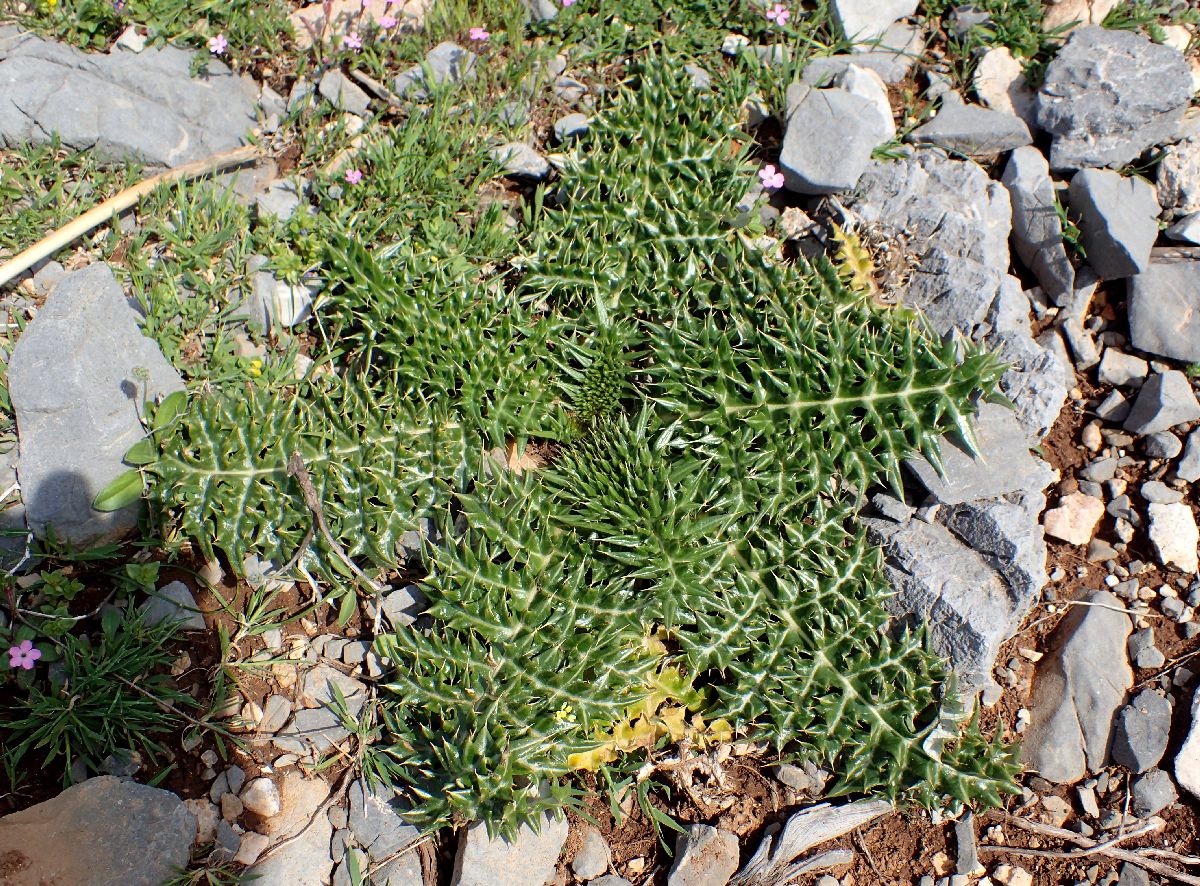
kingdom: Plantae
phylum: Tracheophyta
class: Magnoliopsida
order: Asterales
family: Asteraceae
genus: Cynara
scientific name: Cynara cornigera
